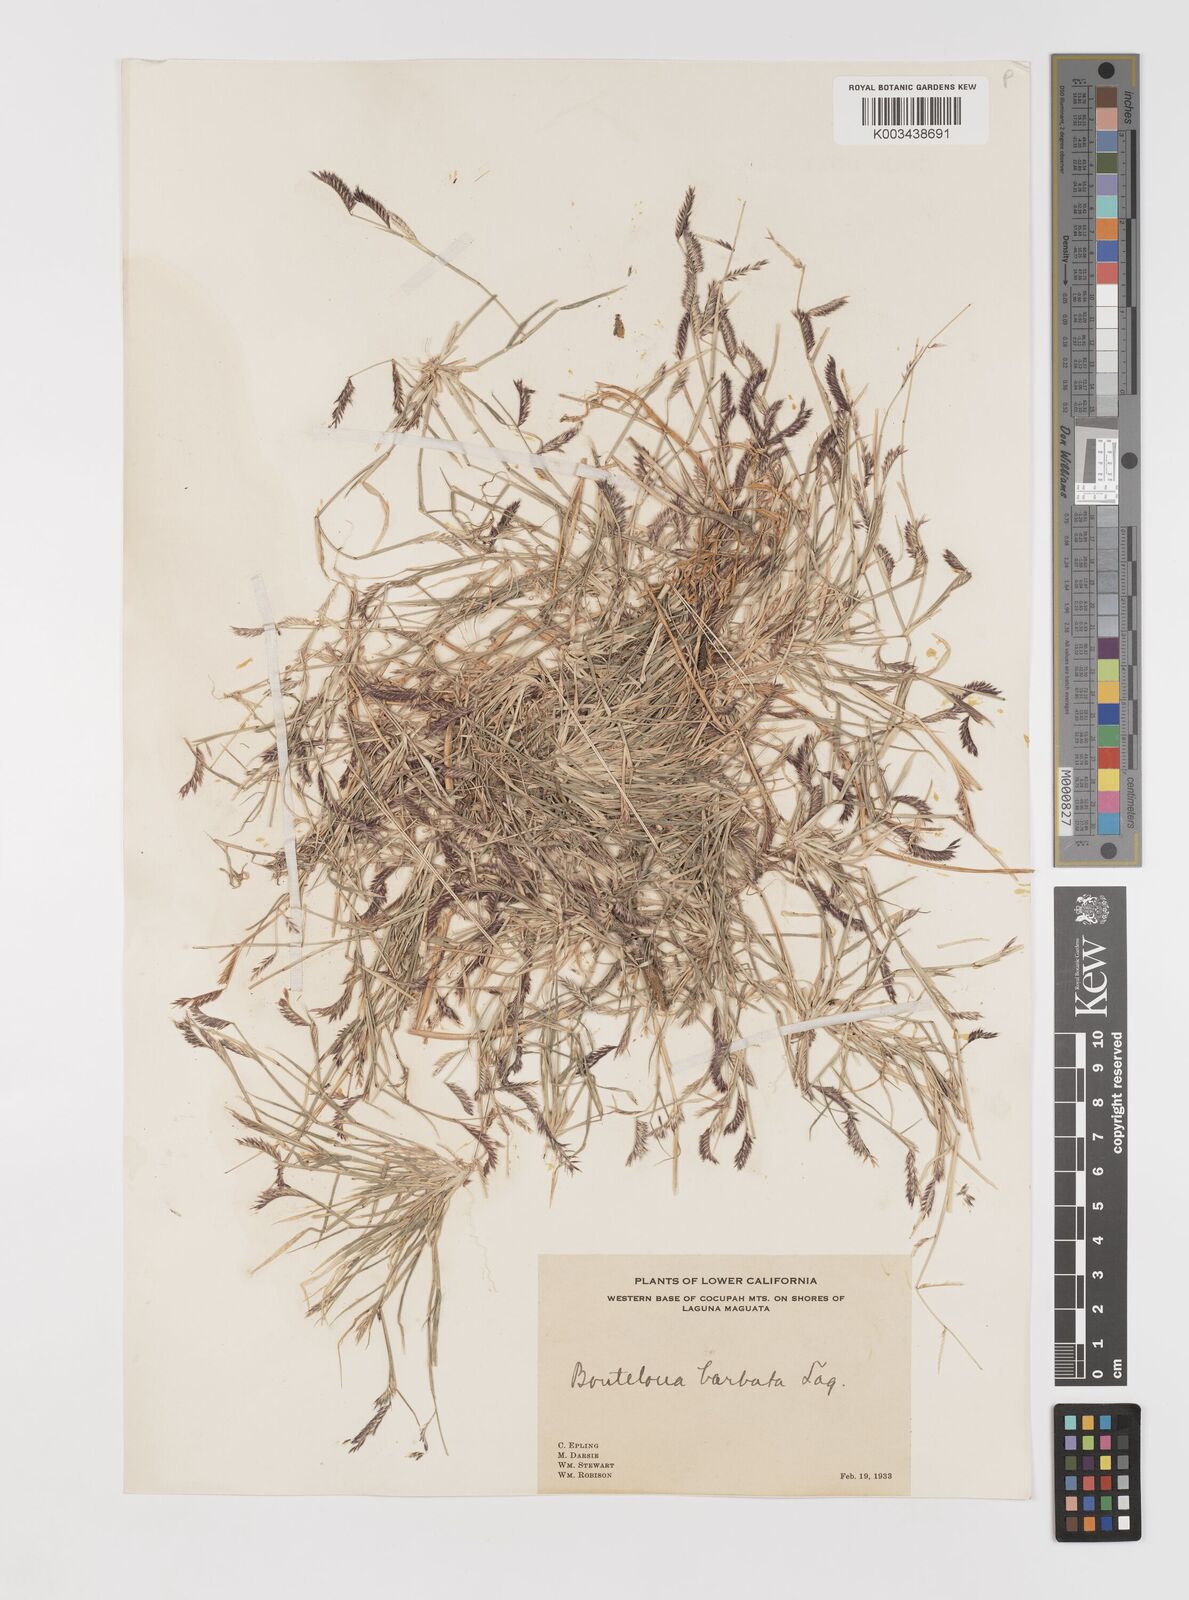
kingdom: Plantae
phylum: Tracheophyta
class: Liliopsida
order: Poales
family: Poaceae
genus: Bouteloua
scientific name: Bouteloua
